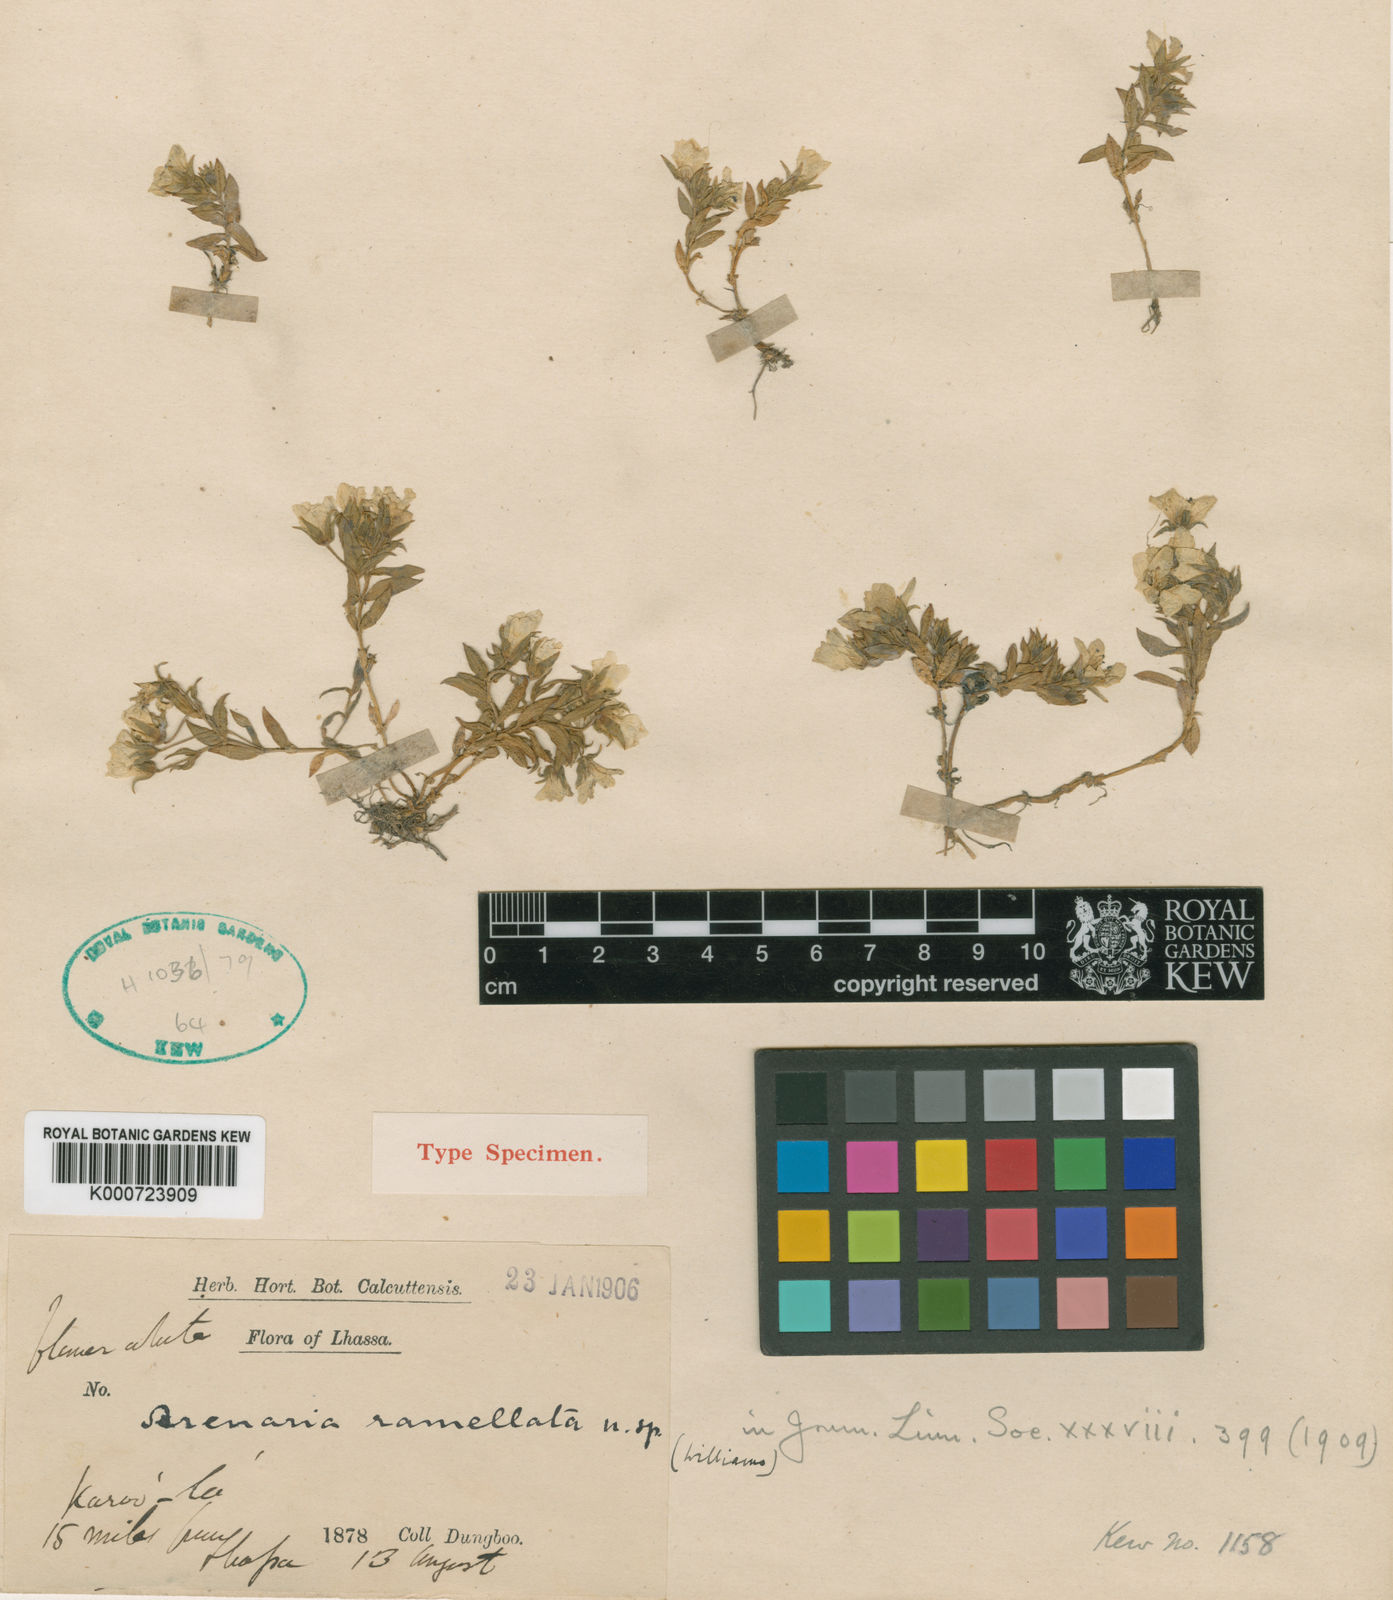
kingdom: Plantae
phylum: Tracheophyta
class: Magnoliopsida
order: Caryophyllales
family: Caryophyllaceae
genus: Shivparvatia
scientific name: Shivparvatia ramellata
